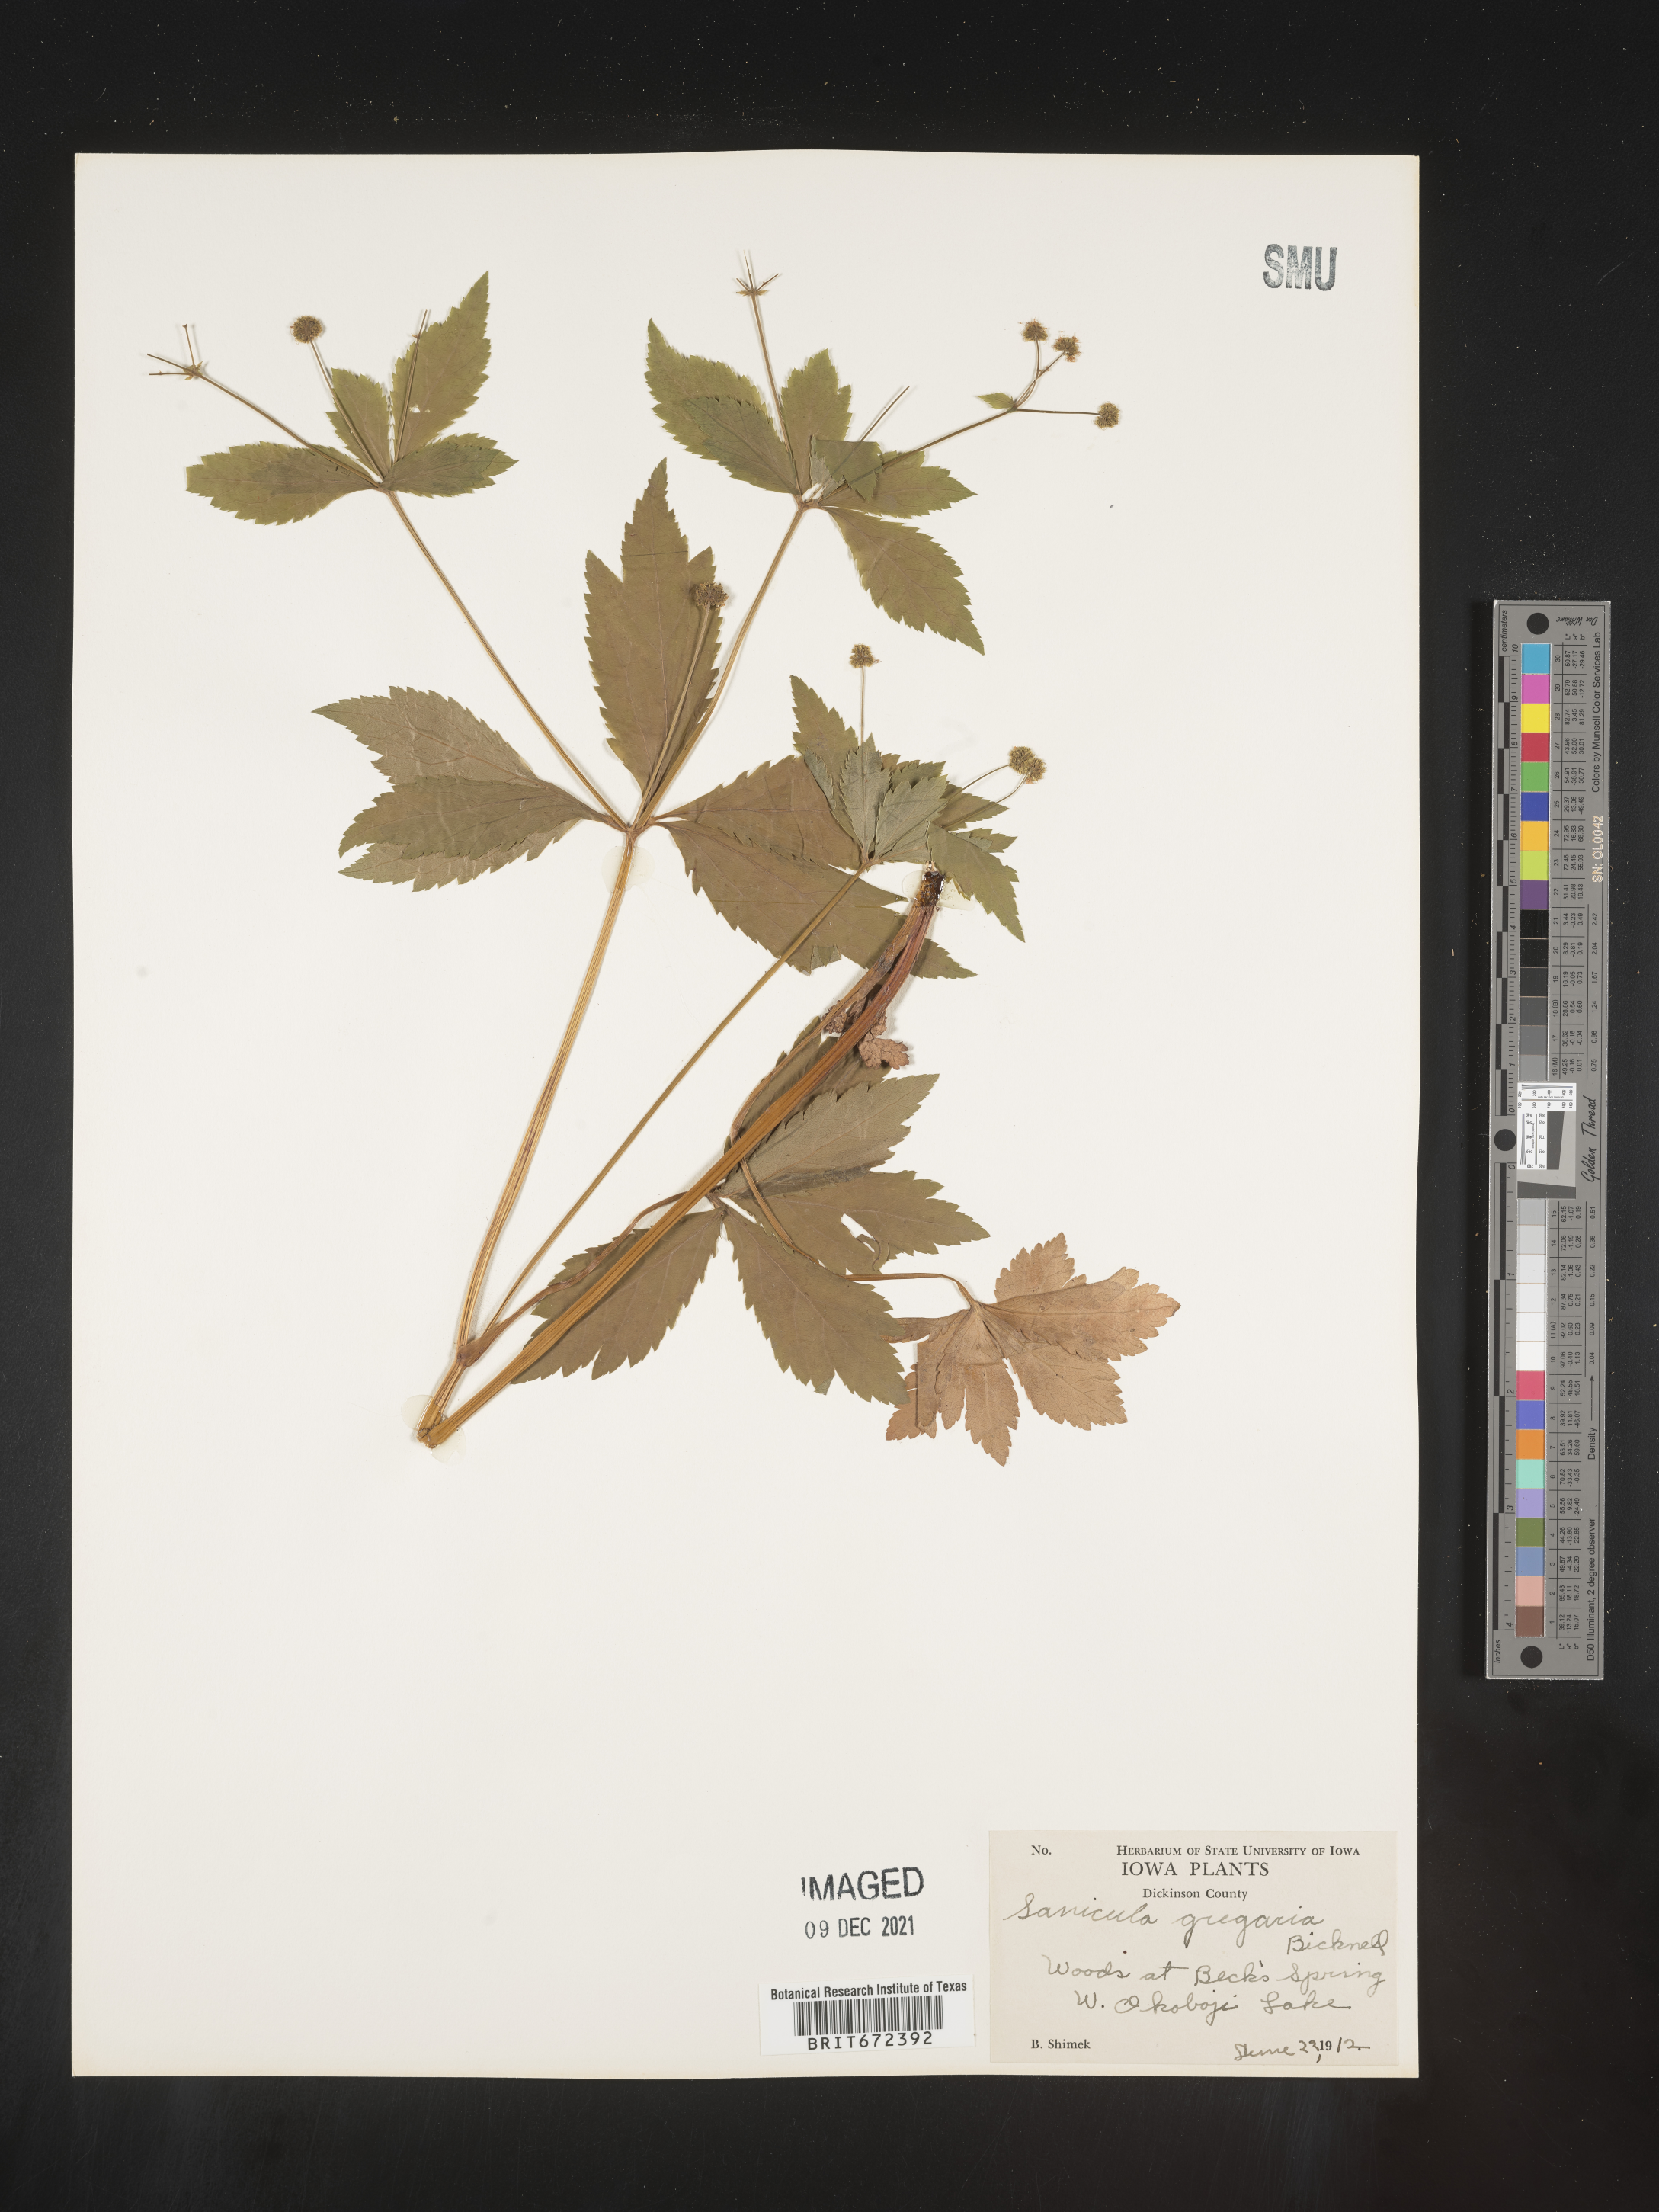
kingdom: Plantae
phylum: Tracheophyta
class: Magnoliopsida
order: Apiales
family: Apiaceae
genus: Sanicula
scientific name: Sanicula odorata
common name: Cluster sanicle
